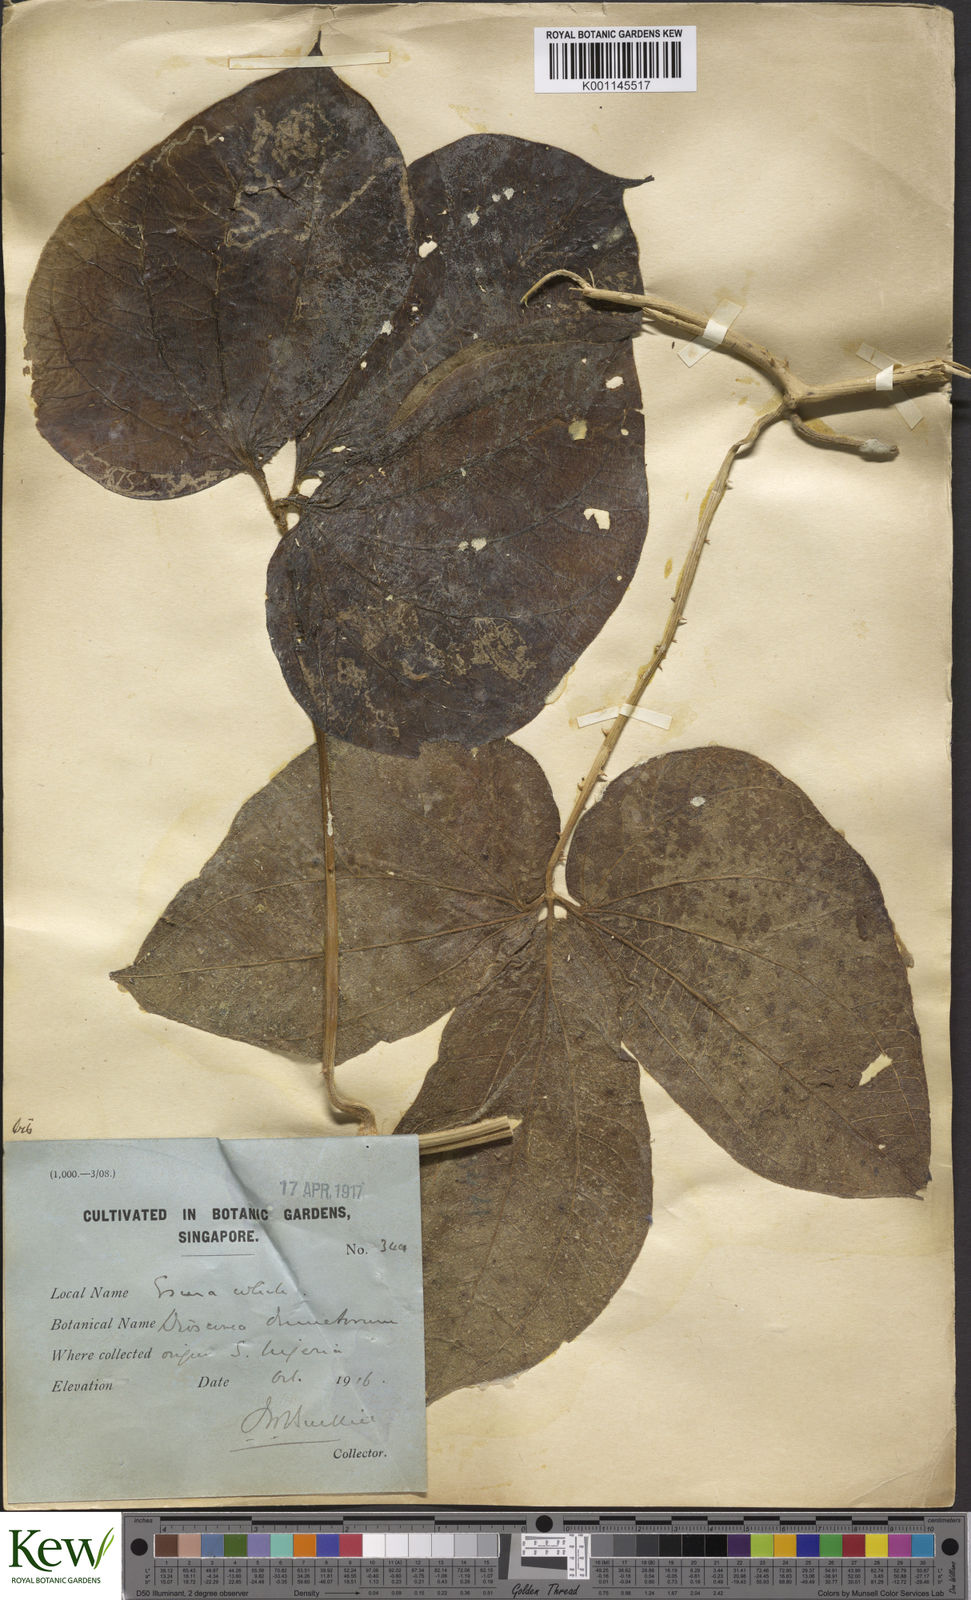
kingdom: Plantae
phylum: Tracheophyta
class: Liliopsida
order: Dioscoreales
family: Dioscoreaceae
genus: Dioscorea
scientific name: Dioscorea dumetorum
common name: African bitter yam
